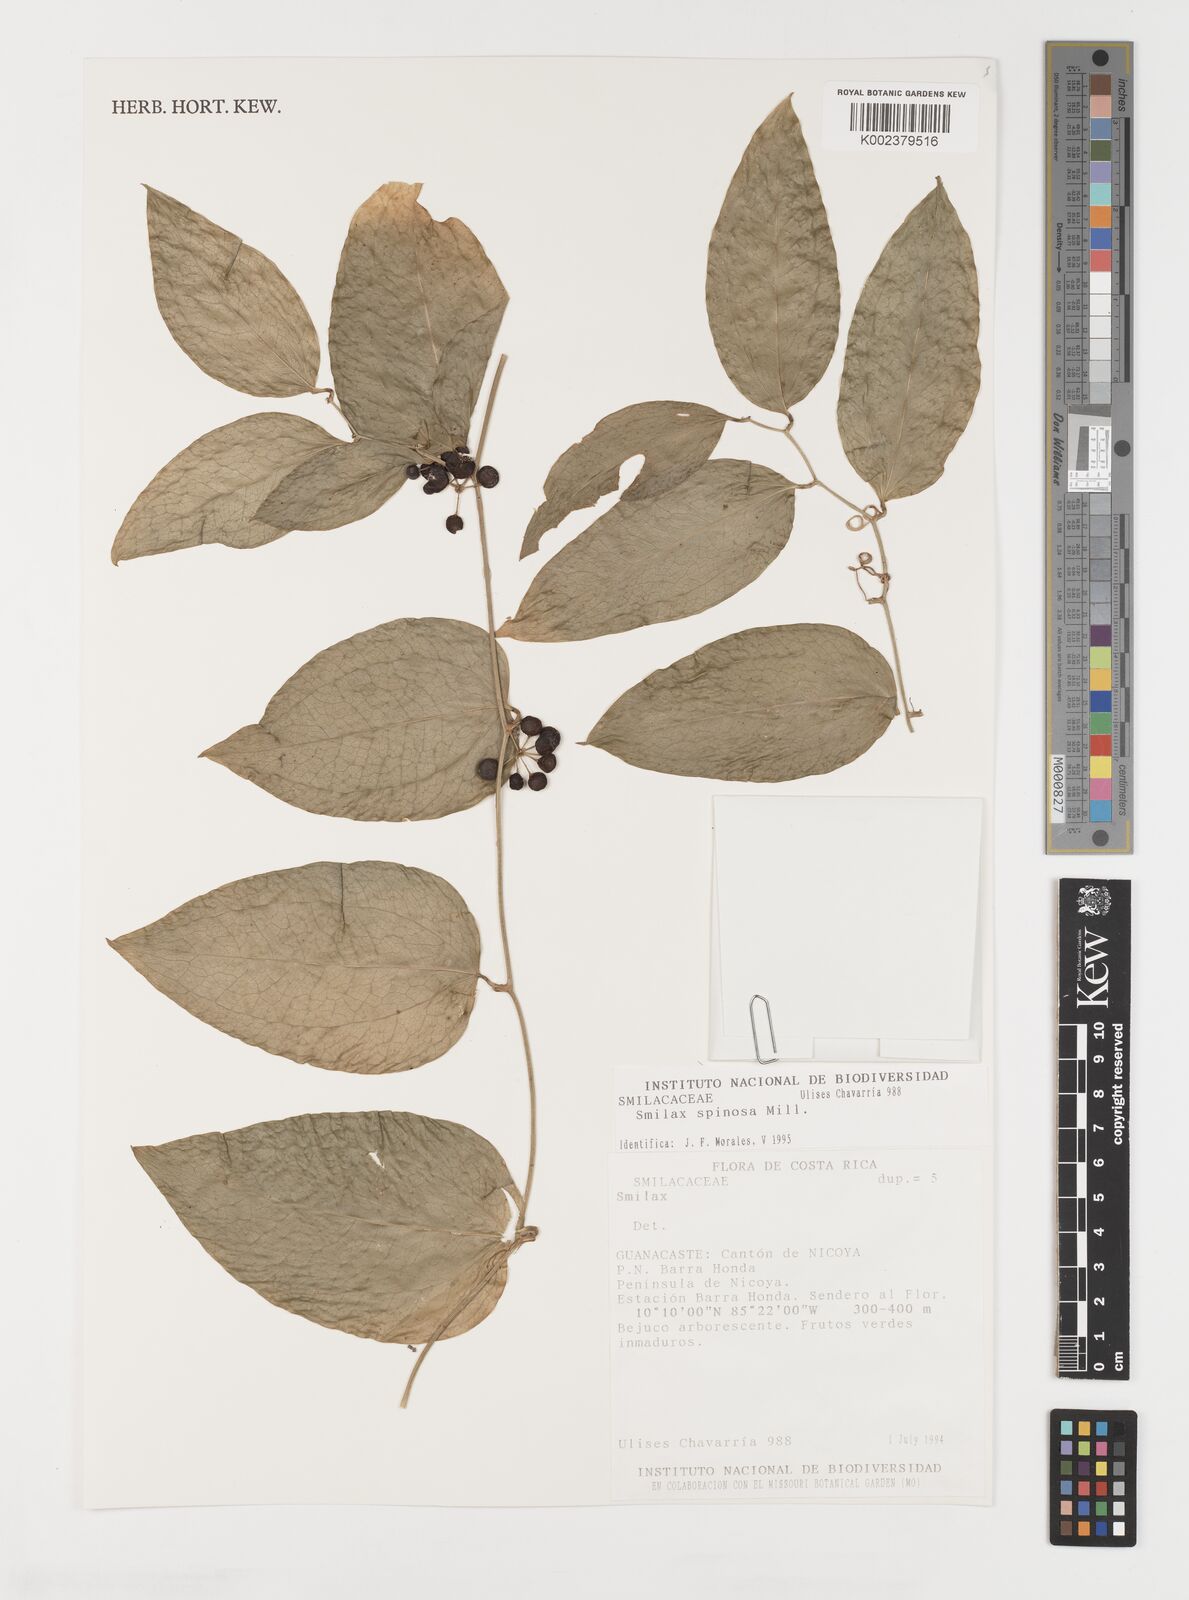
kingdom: Plantae
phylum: Tracheophyta
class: Liliopsida
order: Liliales
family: Smilacaceae
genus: Smilax
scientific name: Smilax spinosa
